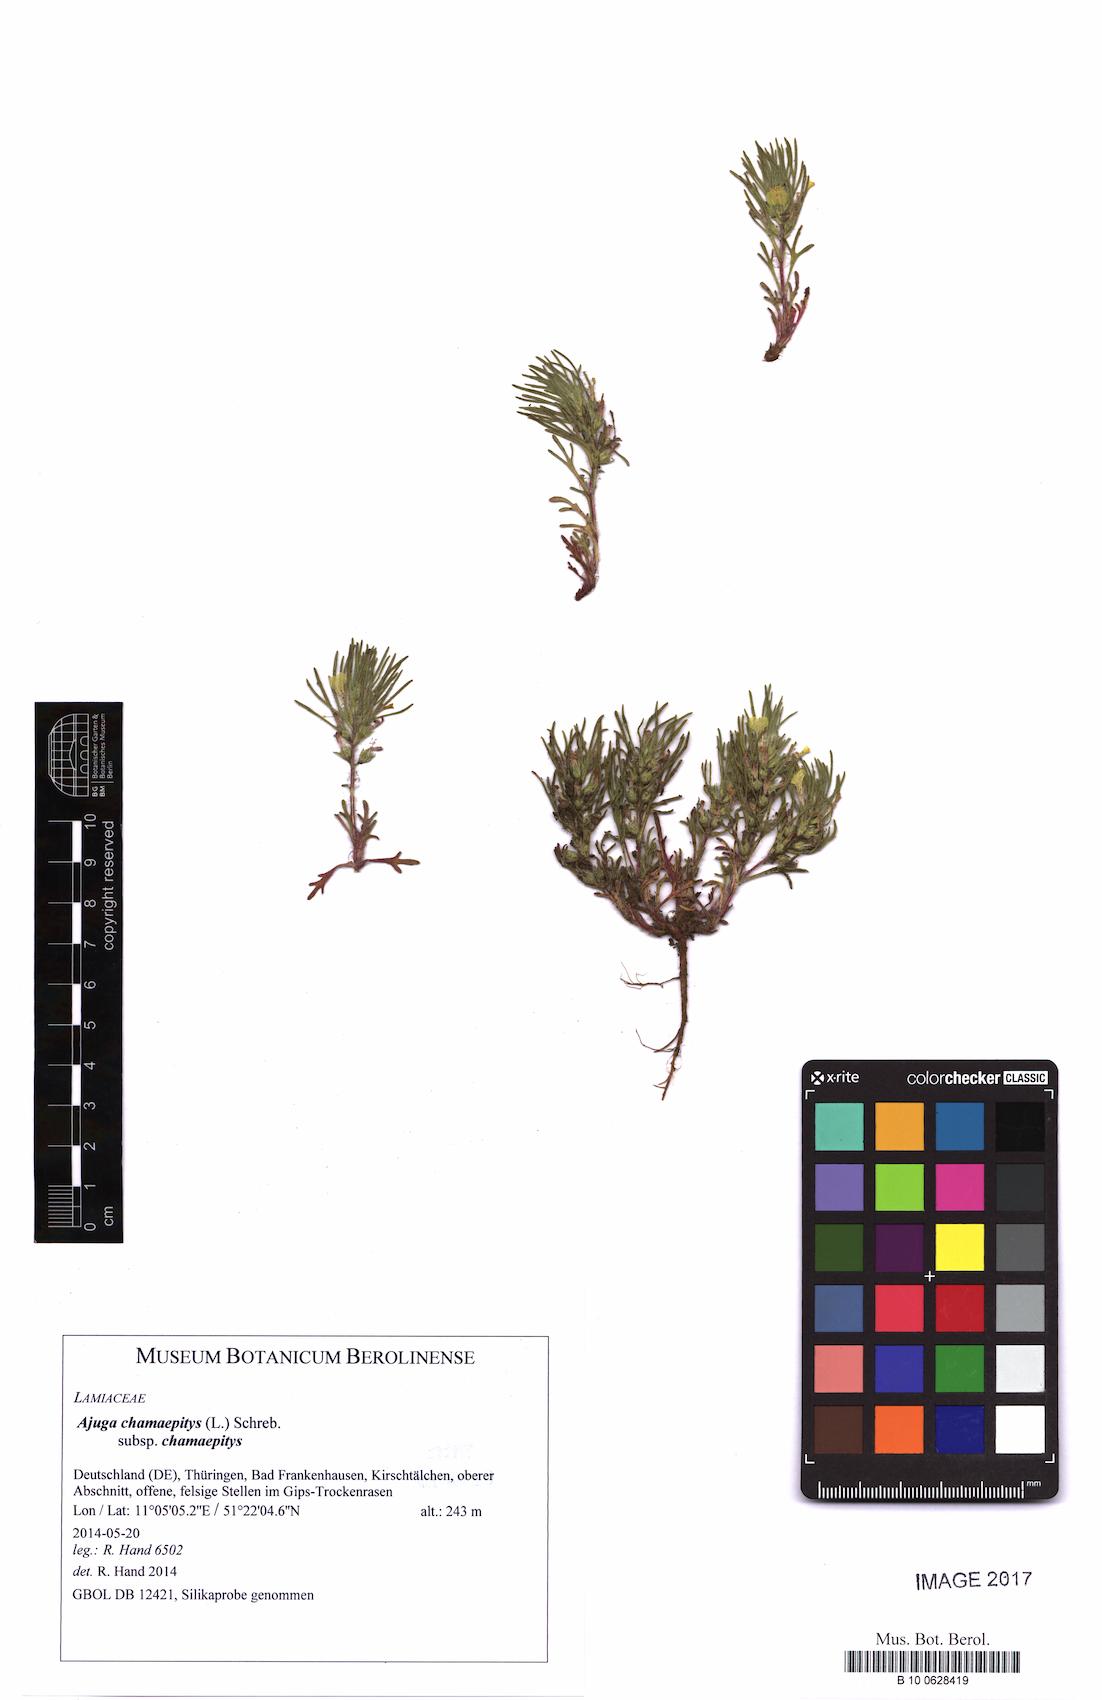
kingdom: Plantae
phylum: Tracheophyta
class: Magnoliopsida
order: Lamiales
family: Lamiaceae
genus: Ajuga
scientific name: Ajuga chamaepitys
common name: Ground-pine
